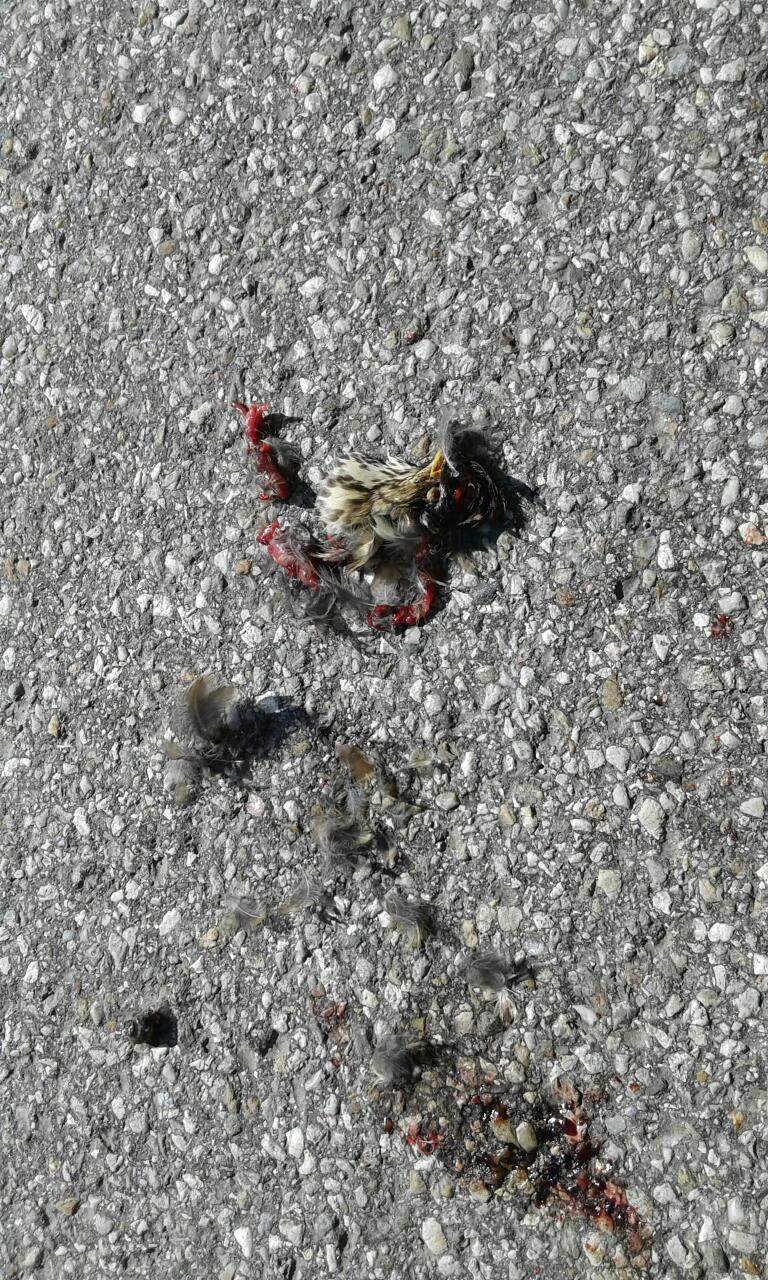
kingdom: Animalia
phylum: Chordata
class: Aves
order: Passeriformes
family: Turdidae
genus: Turdus
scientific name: Turdus philomelos
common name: Song thrush
